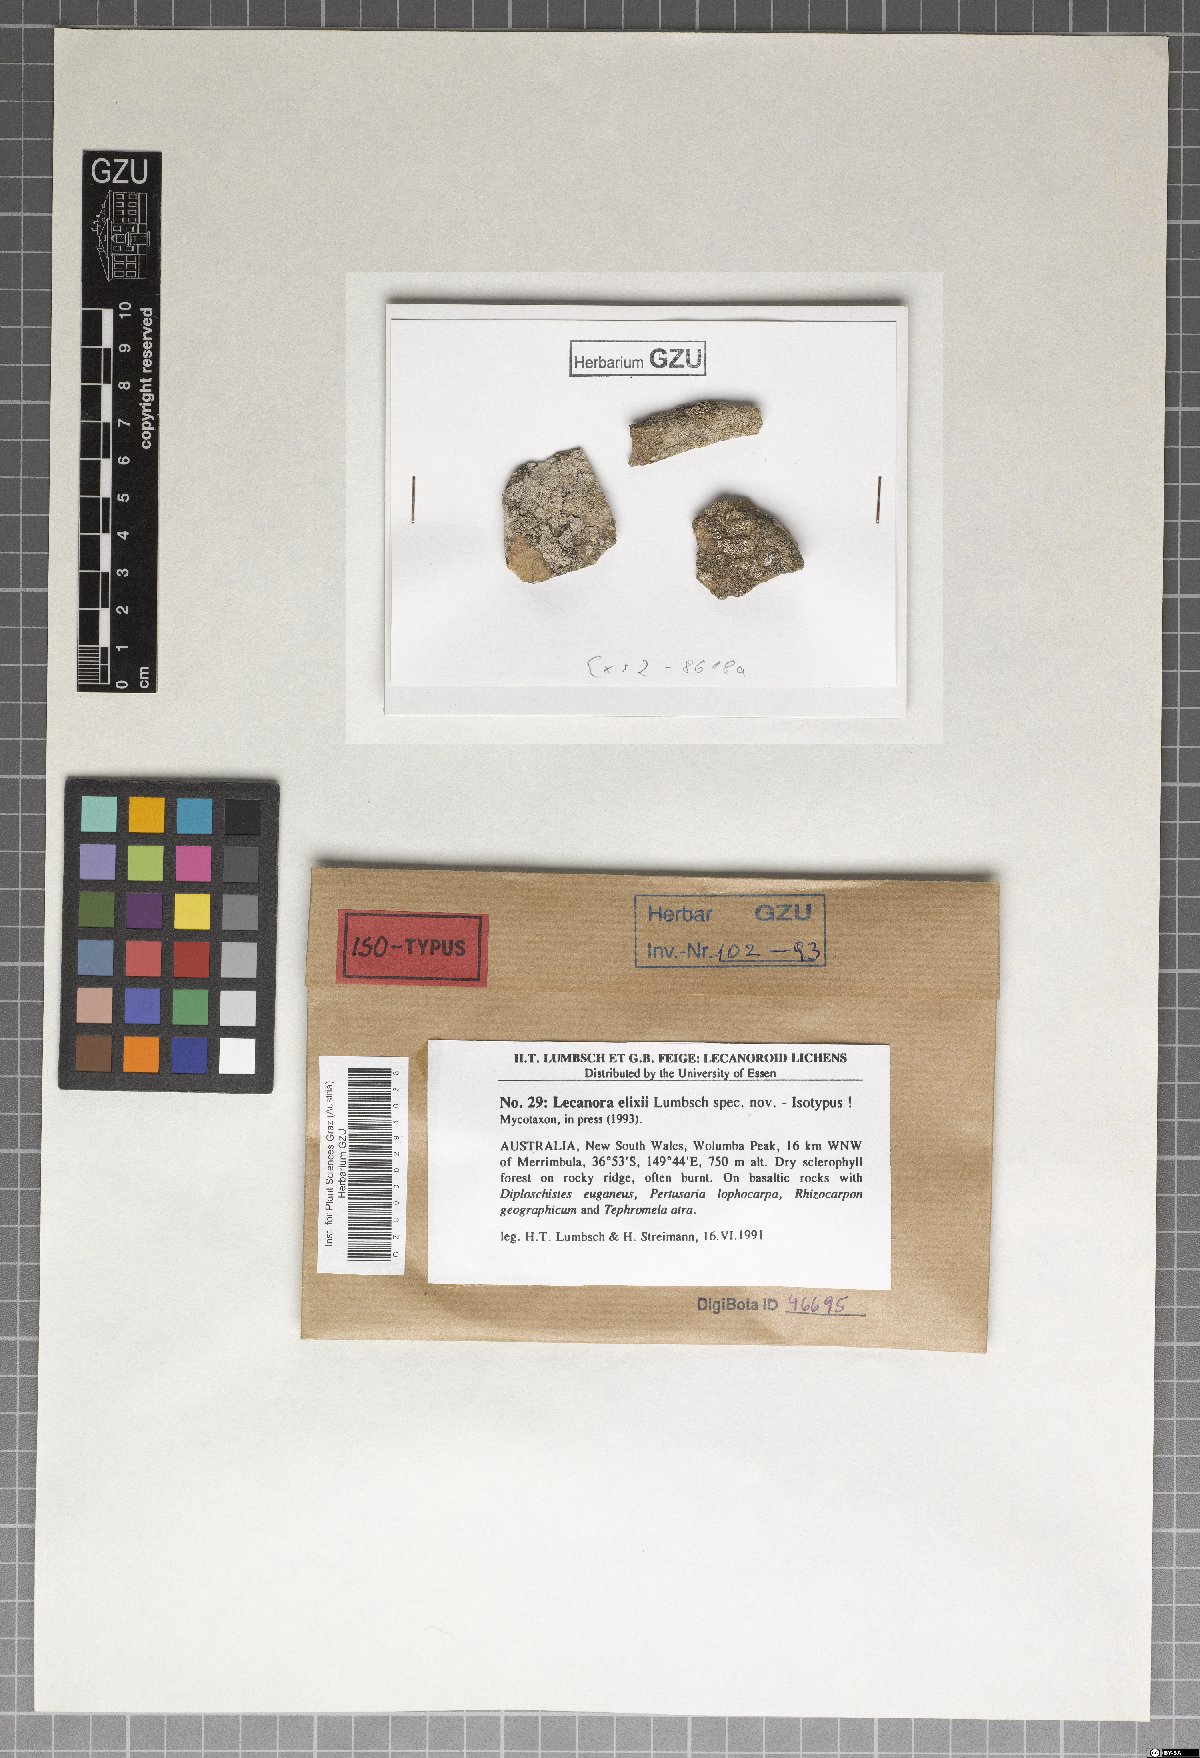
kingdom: Fungi
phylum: Ascomycota
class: Lecanoromycetes
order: Lecanorales
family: Lecanoraceae
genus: Lecanora
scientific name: Lecanora elixii
